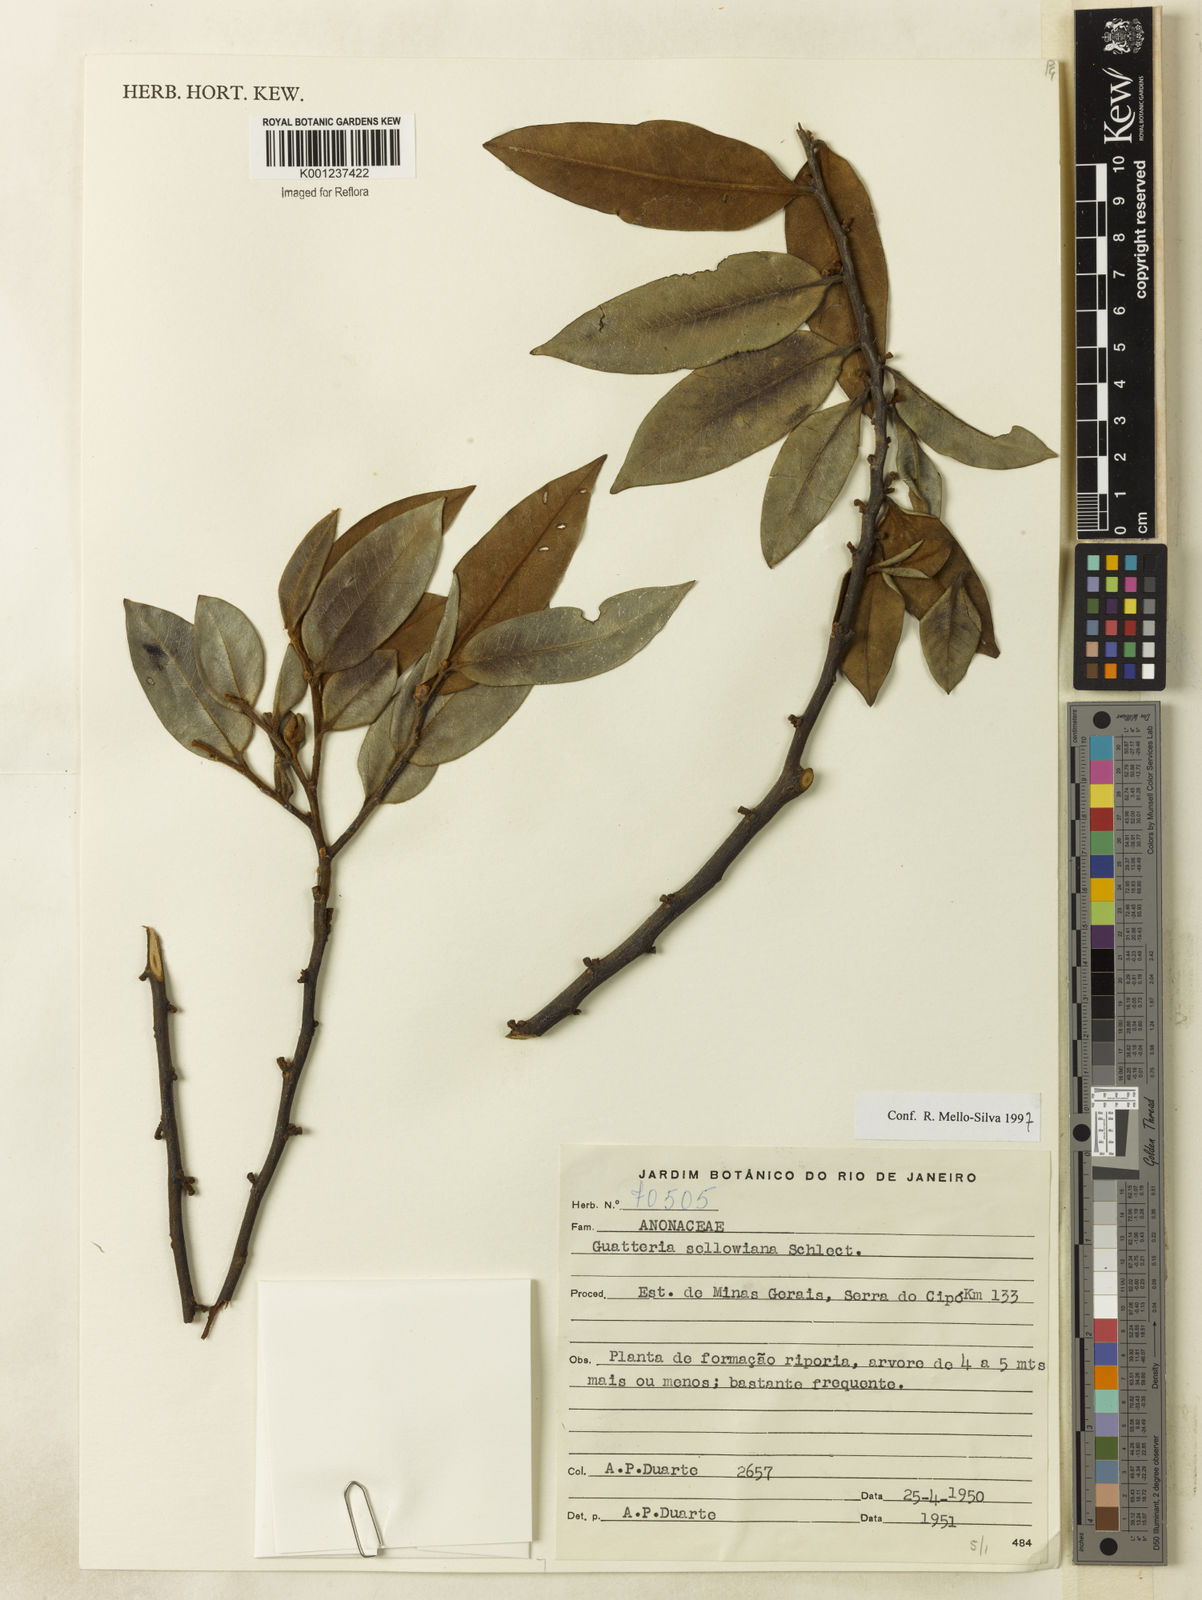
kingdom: Plantae
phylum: Tracheophyta
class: Magnoliopsida
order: Magnoliales
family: Annonaceae
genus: Guatteria
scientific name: Guatteria sellowiana
